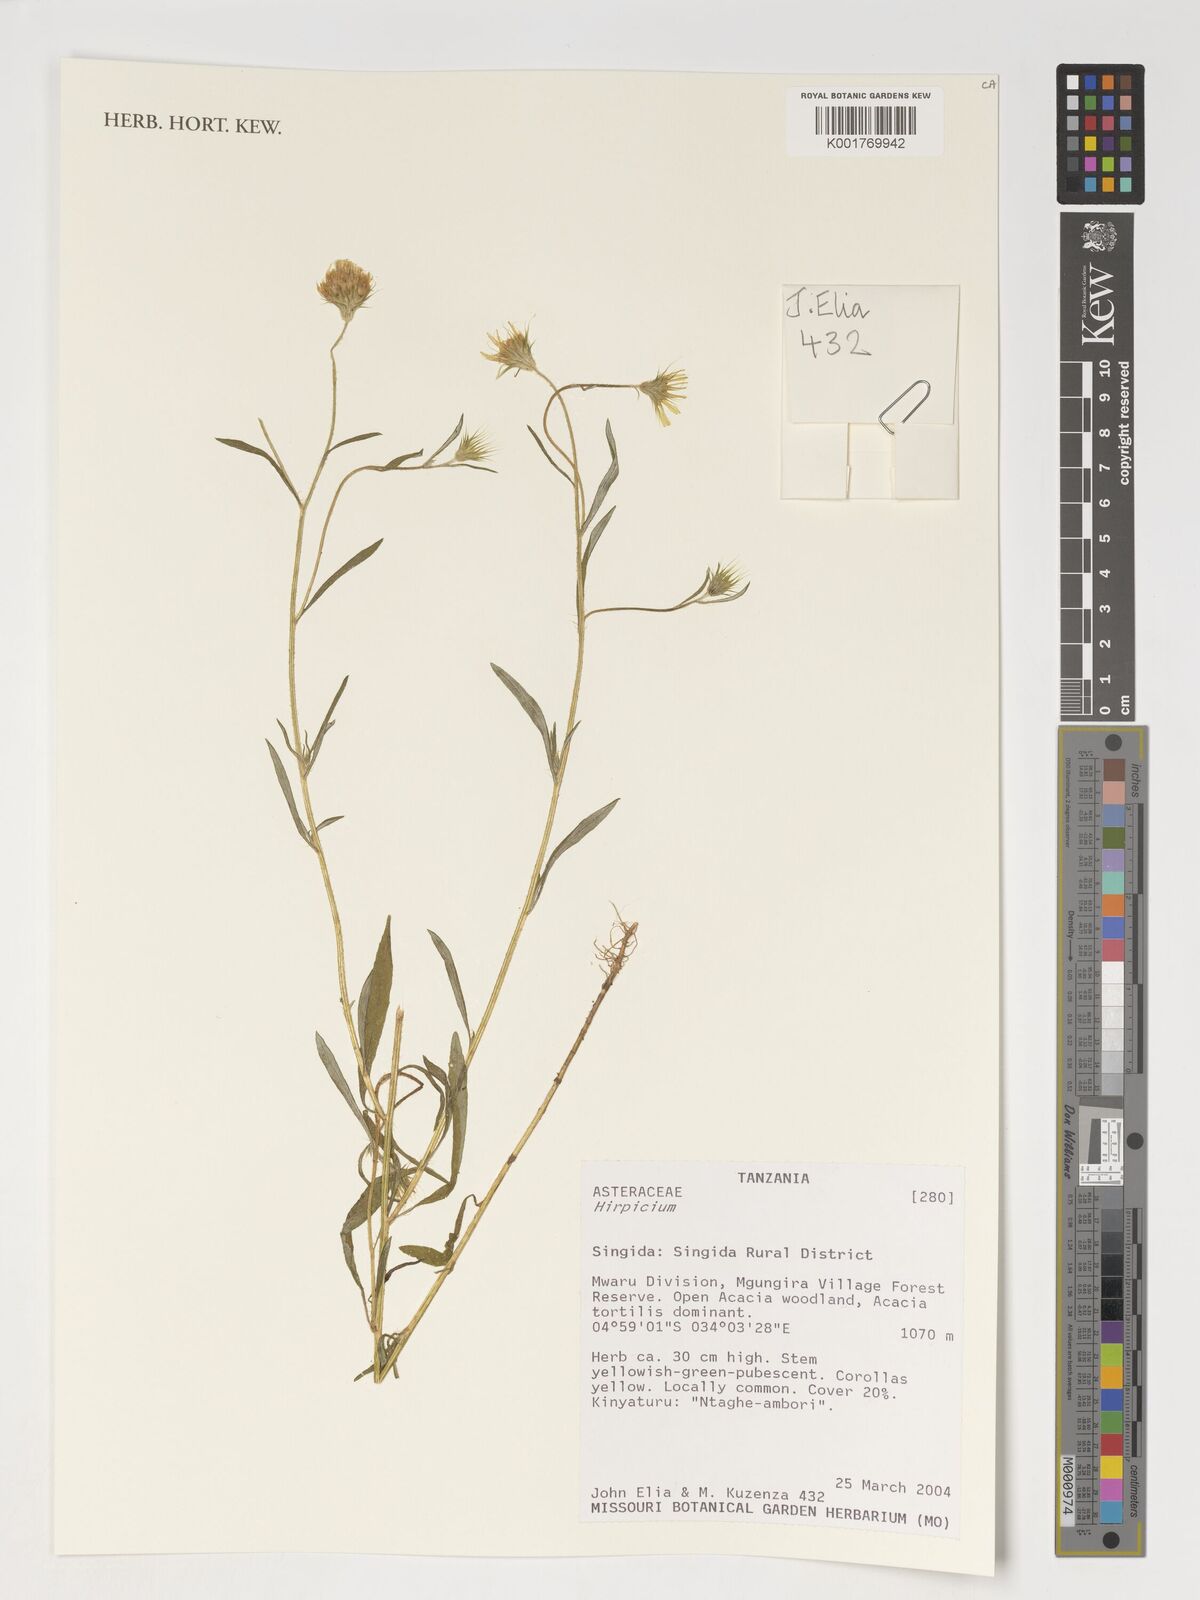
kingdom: Plantae
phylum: Tracheophyta
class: Magnoliopsida
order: Asterales
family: Asteraceae
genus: Hirpicium
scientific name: Hirpicium
